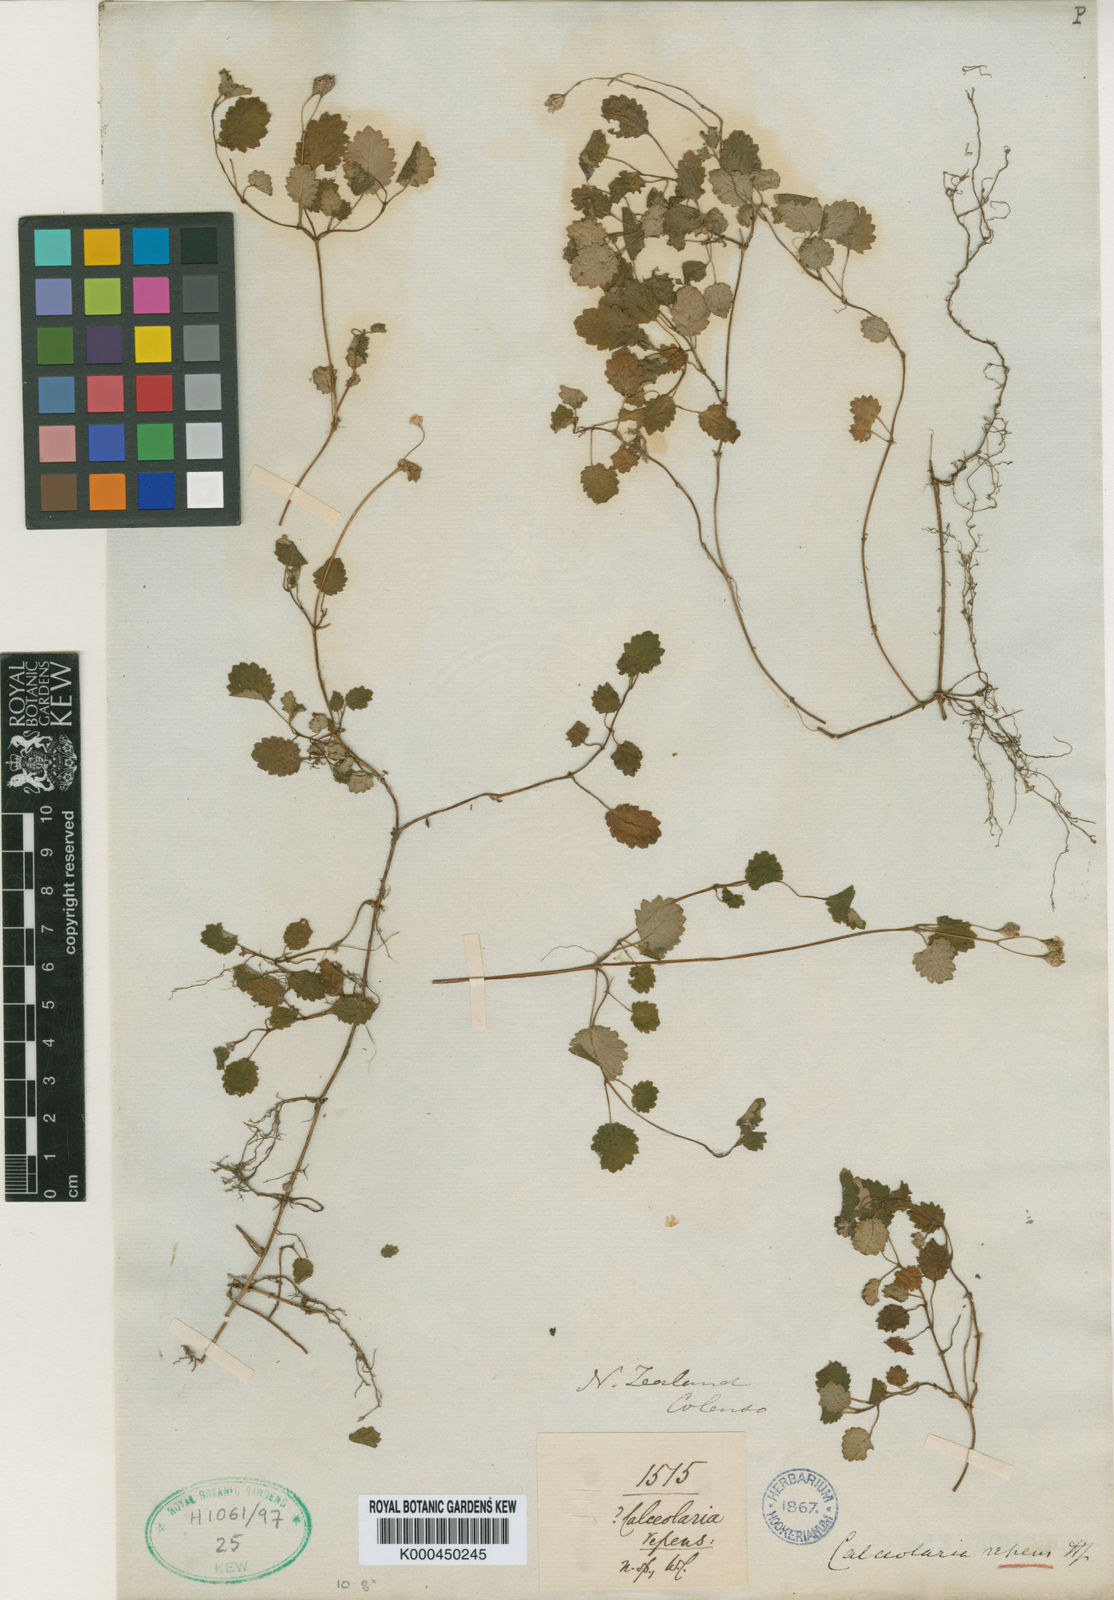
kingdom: Plantae
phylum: Tracheophyta
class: Magnoliopsida
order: Lamiales
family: Calceolariaceae
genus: Jovellana
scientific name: Jovellana repens
